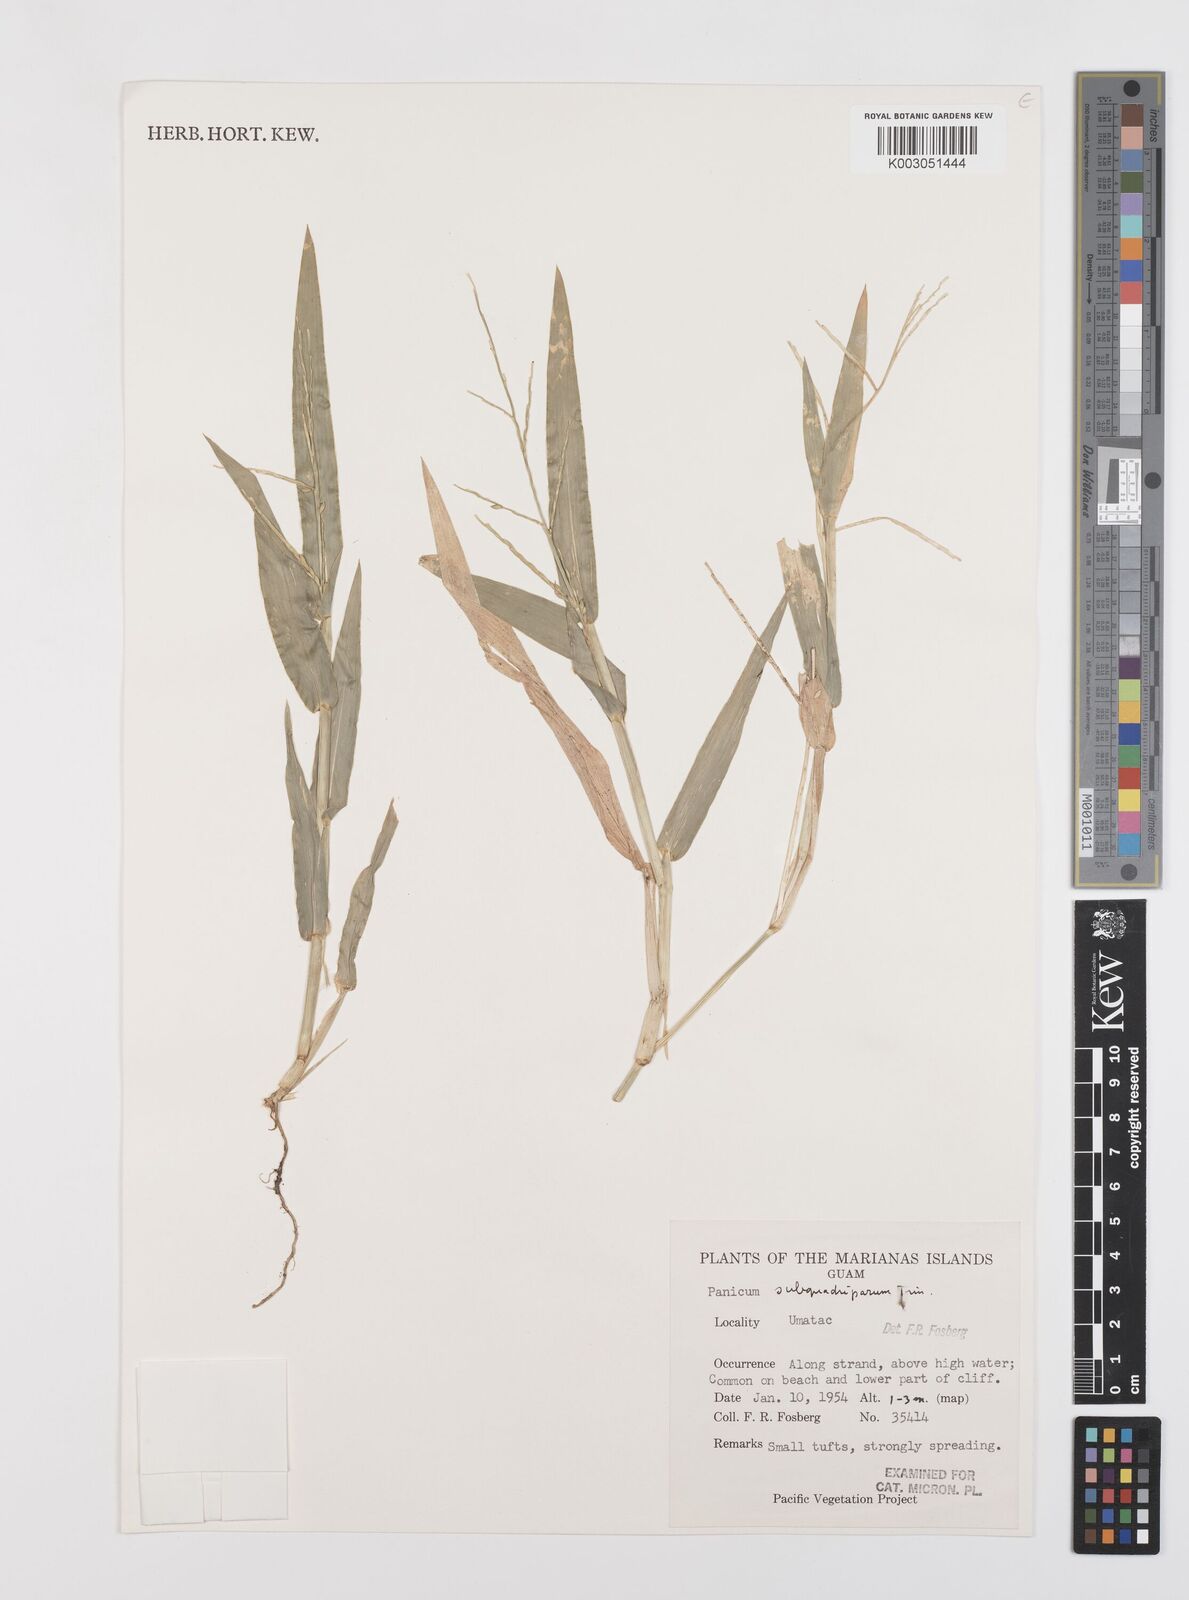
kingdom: Plantae
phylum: Tracheophyta
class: Liliopsida
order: Poales
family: Poaceae
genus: Urochloa
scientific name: Urochloa subquadripara
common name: Armgrass millet
